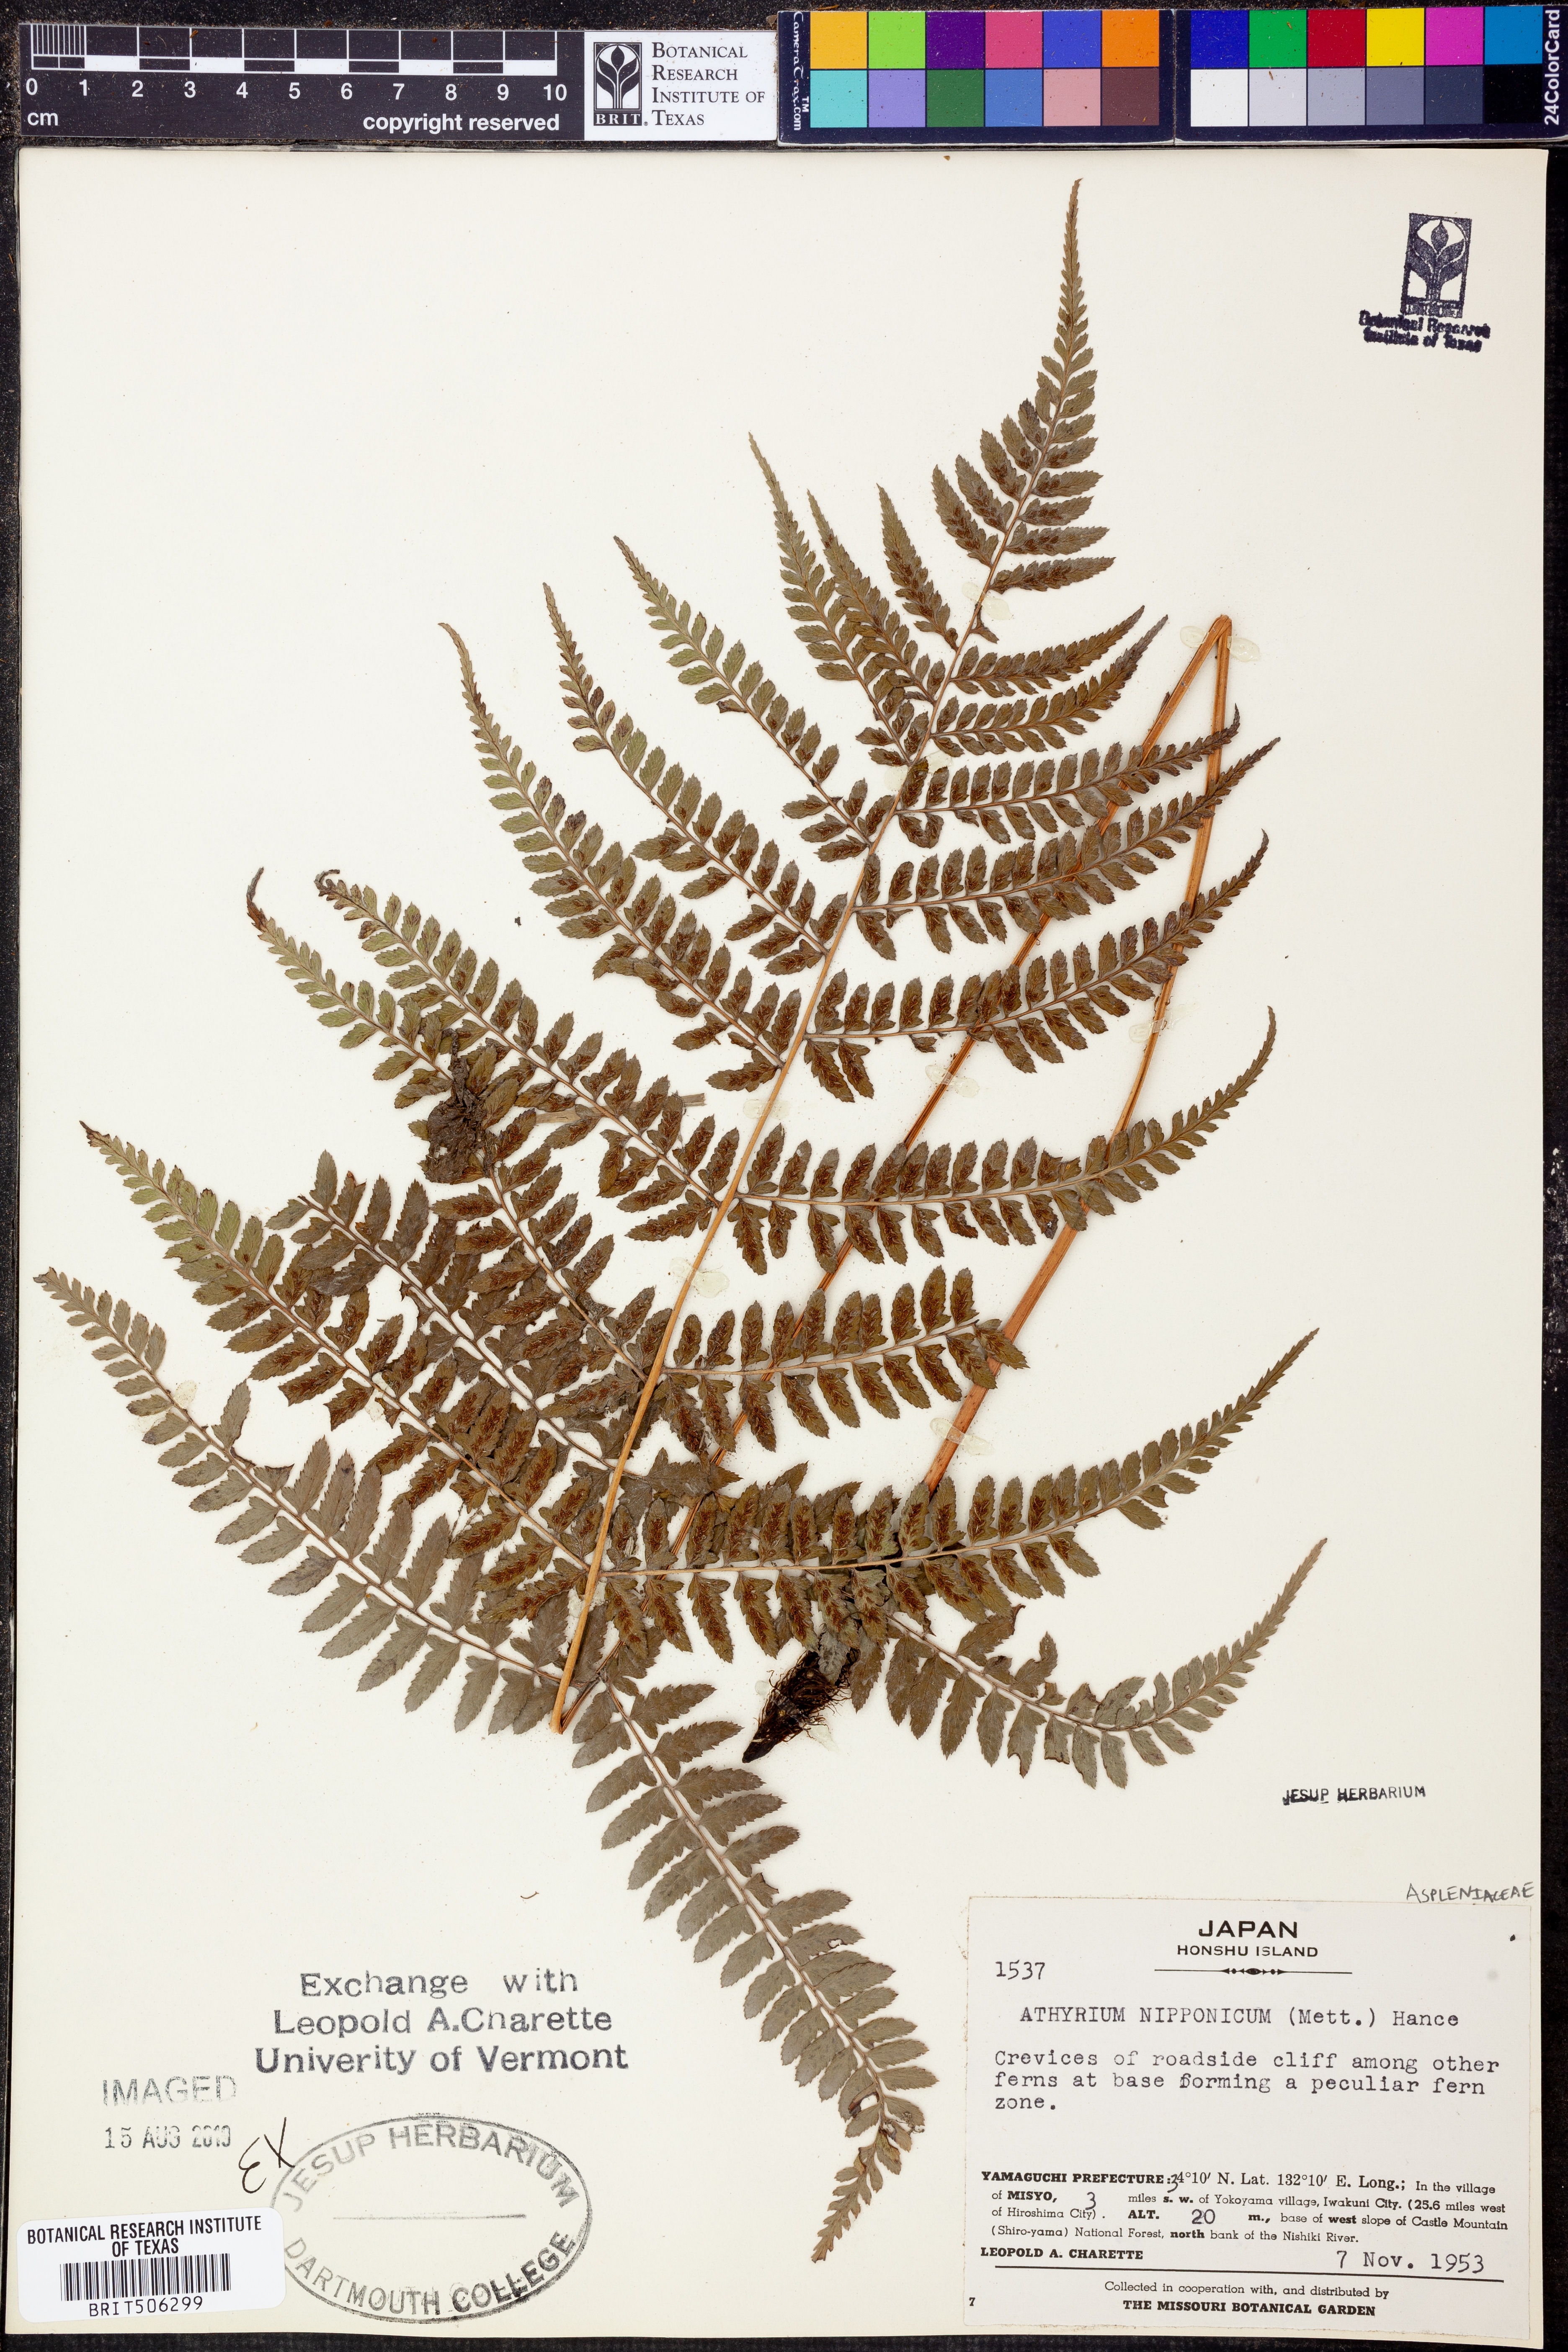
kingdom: Plantae
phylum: Tracheophyta
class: Polypodiopsida
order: Polypodiales
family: Athyriaceae
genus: Anisocampium
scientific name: Anisocampium niponicum
